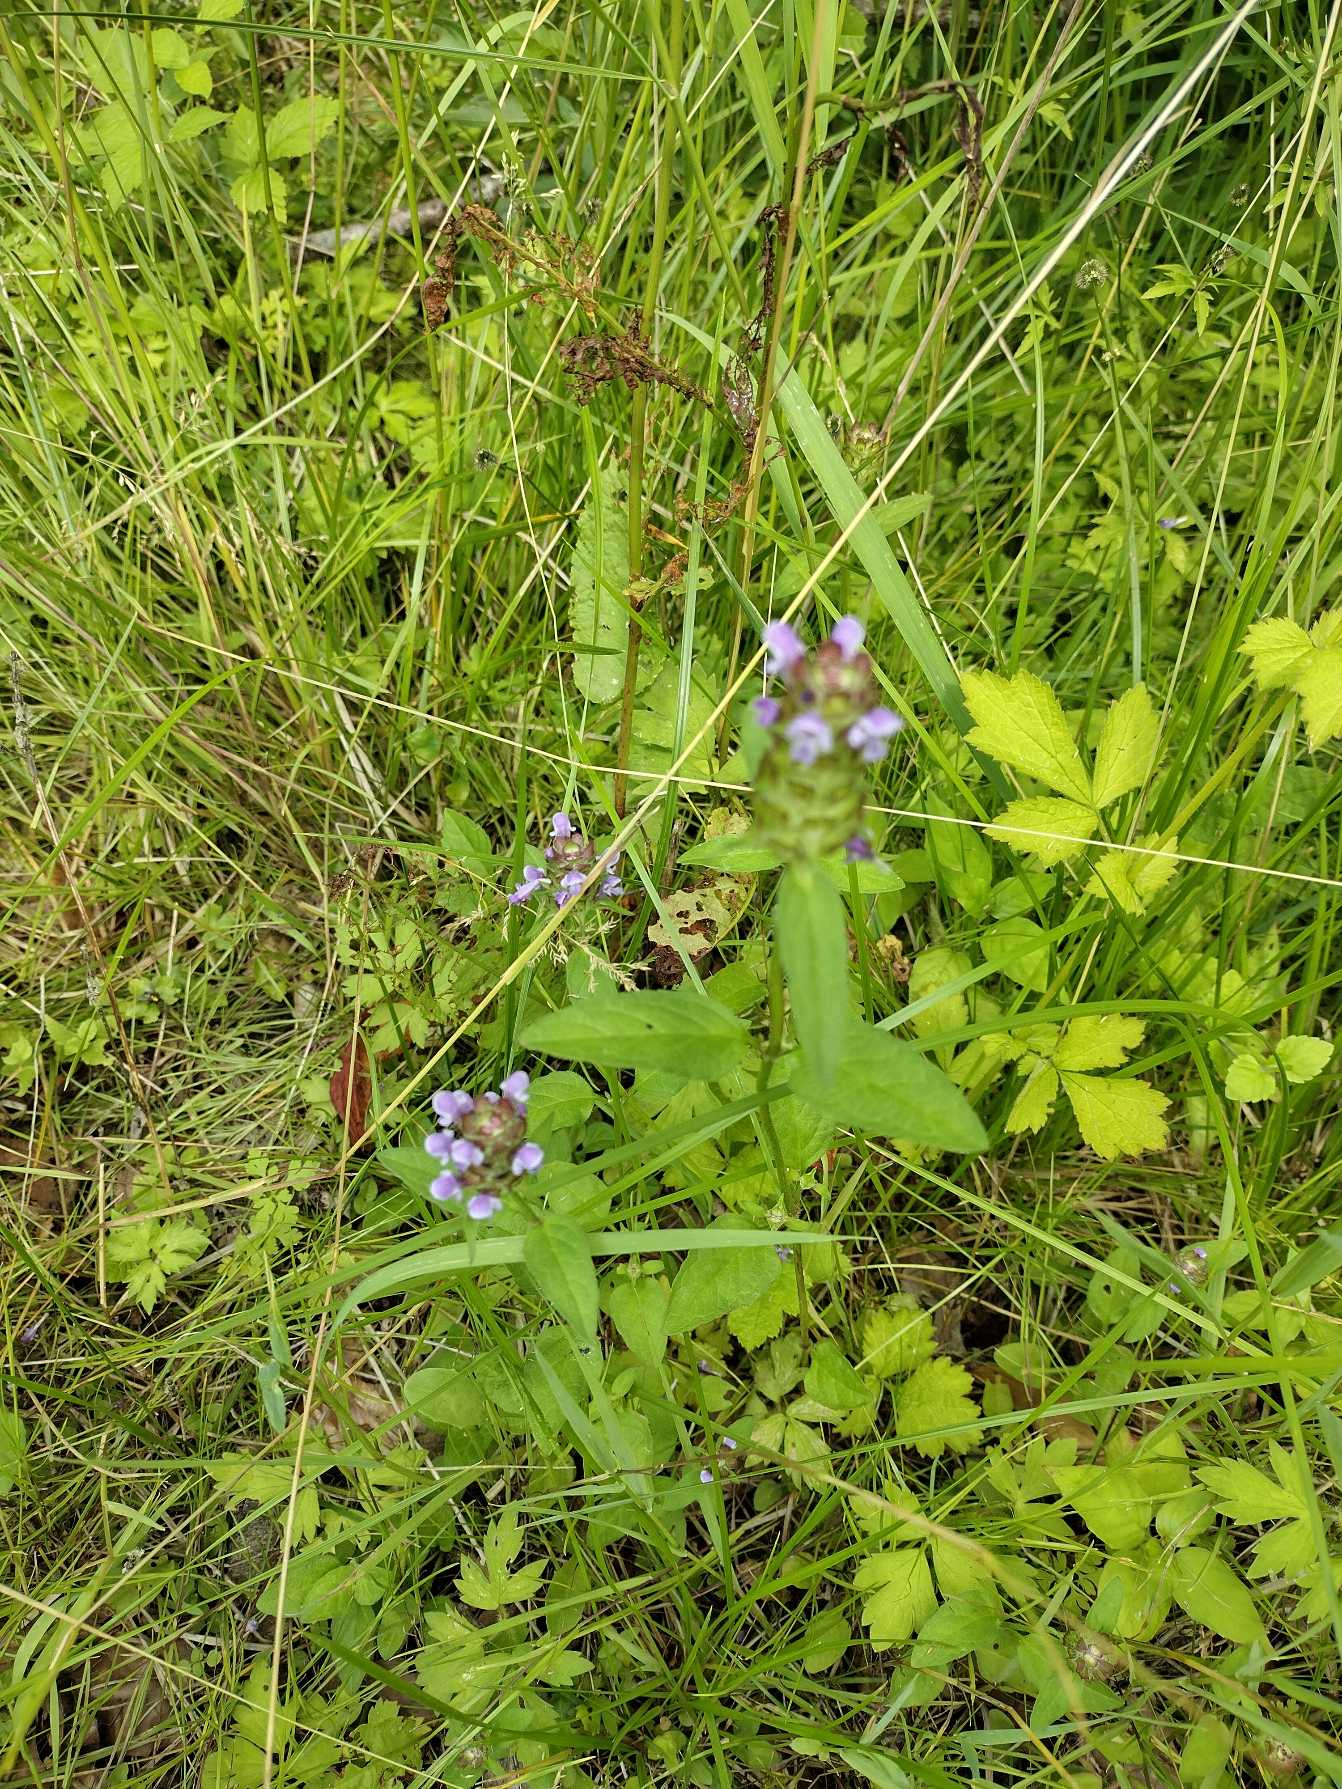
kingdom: Plantae
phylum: Tracheophyta
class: Magnoliopsida
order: Lamiales
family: Lamiaceae
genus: Prunella
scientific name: Prunella vulgaris
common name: Almindelig brunelle
